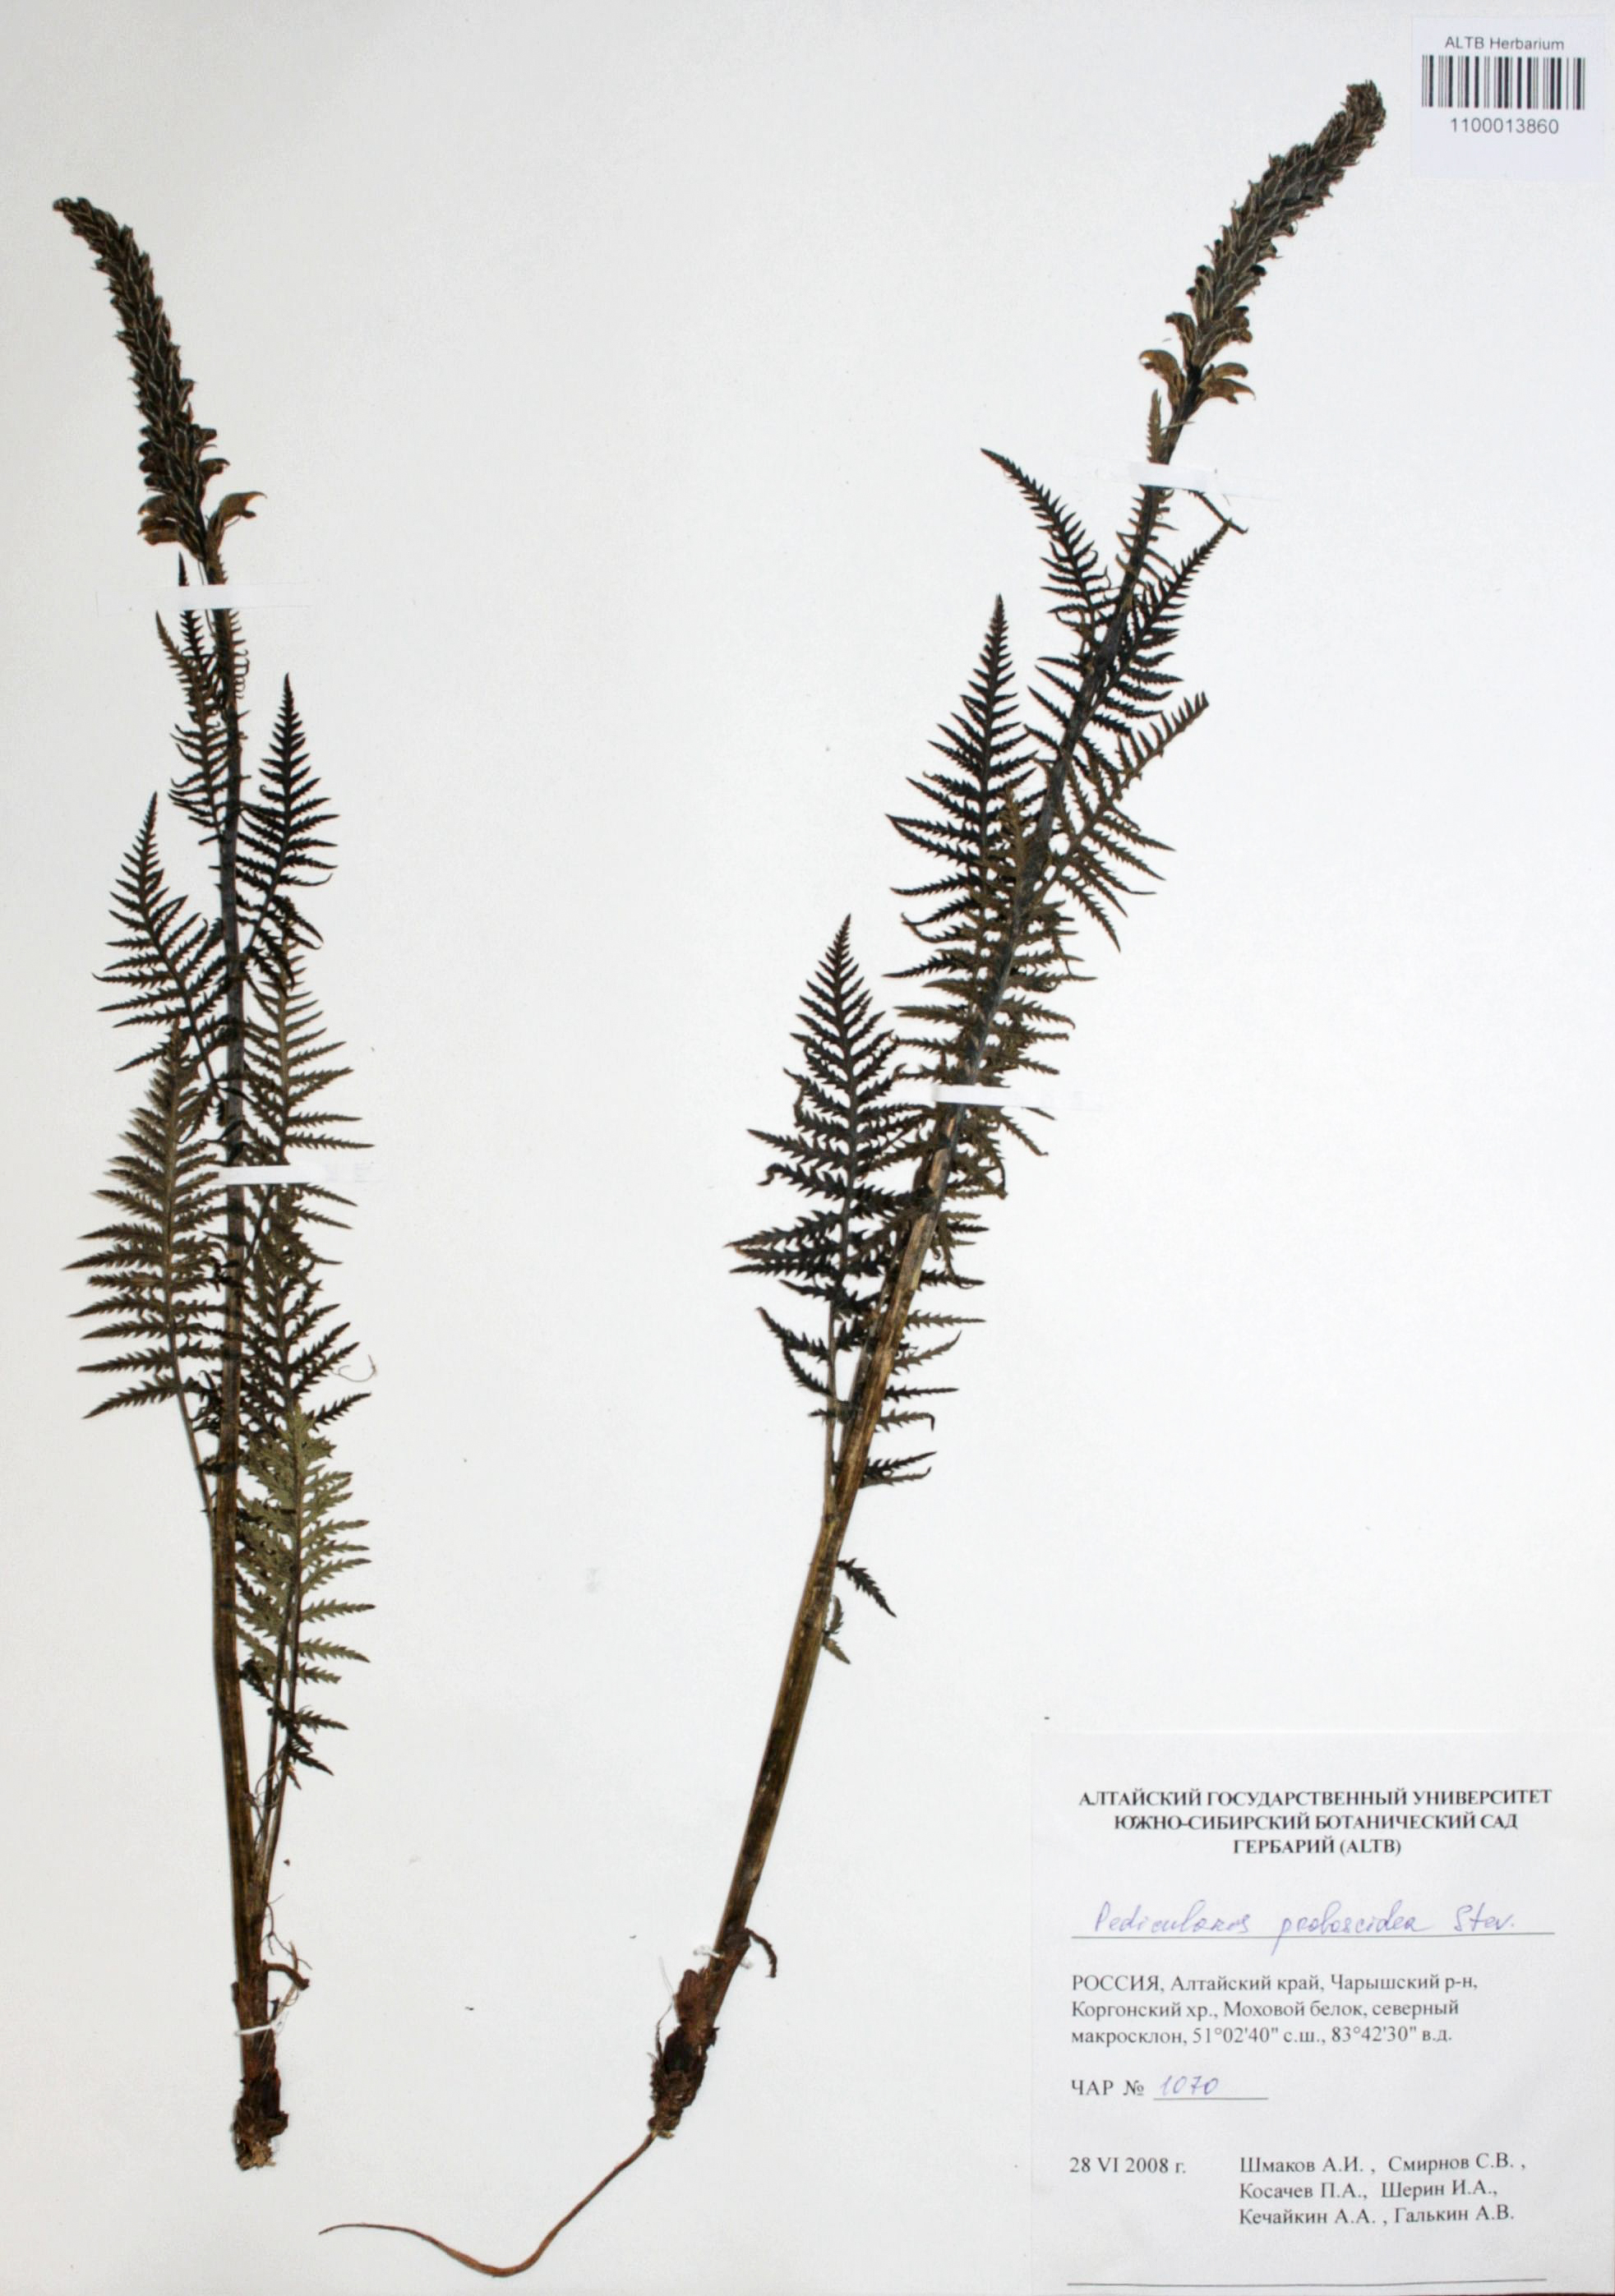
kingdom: Plantae
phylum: Tracheophyta
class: Magnoliopsida
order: Lamiales
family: Orobanchaceae
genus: Pedicularis
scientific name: Pedicularis proboscidea
